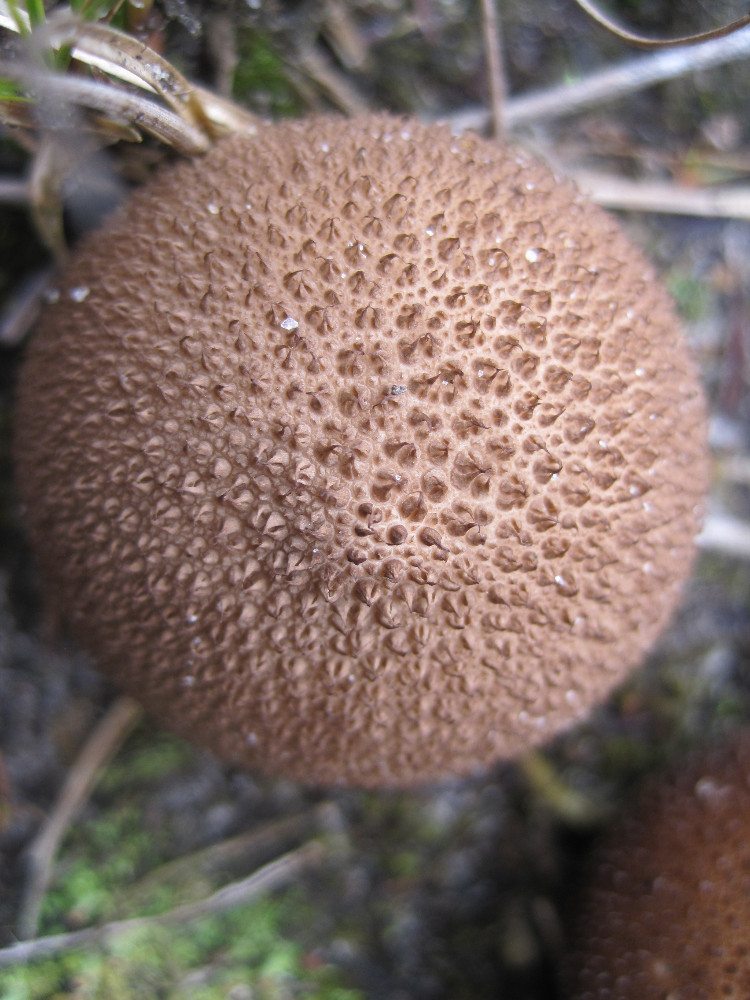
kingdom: Fungi
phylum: Basidiomycota
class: Agaricomycetes
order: Agaricales
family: Lycoperdaceae
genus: Lycoperdon
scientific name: Lycoperdon nigrescens
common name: sortagtig støvbold
